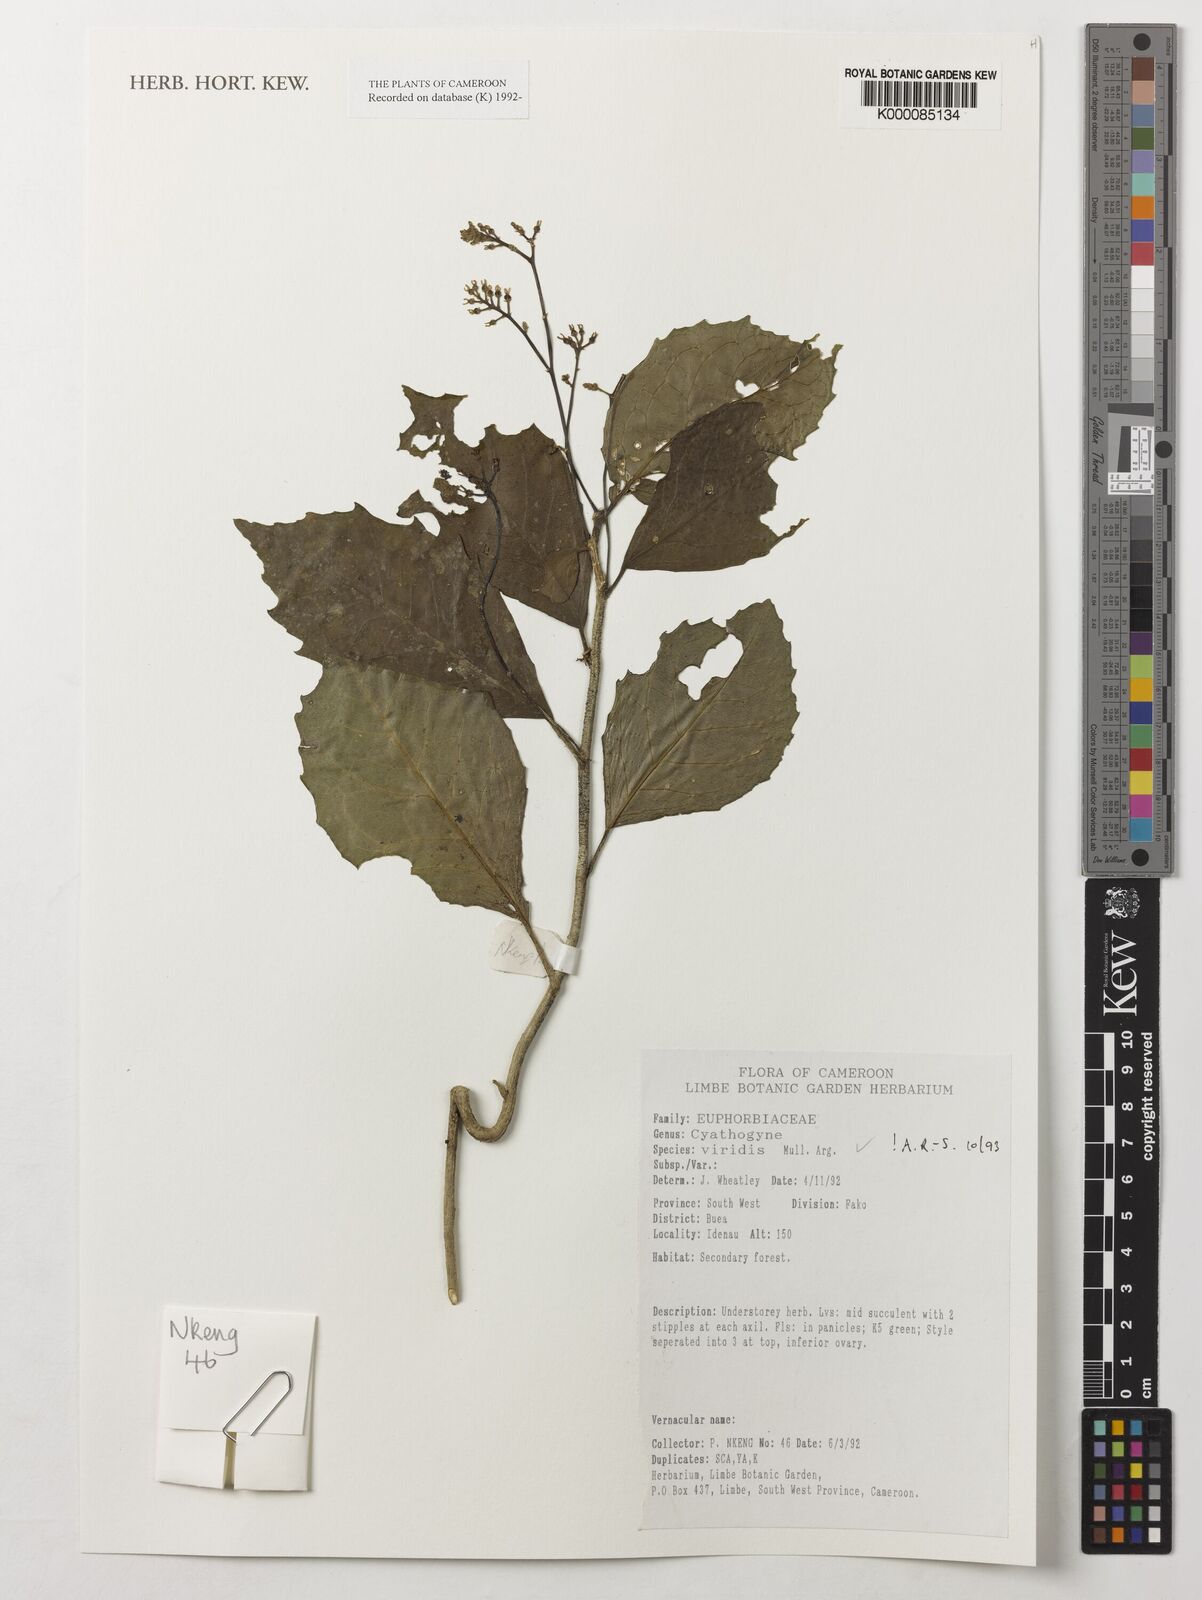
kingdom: Plantae
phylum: Tracheophyta
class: Magnoliopsida
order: Malpighiales
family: Phyllanthaceae
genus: Thecacoris
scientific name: Thecacoris
